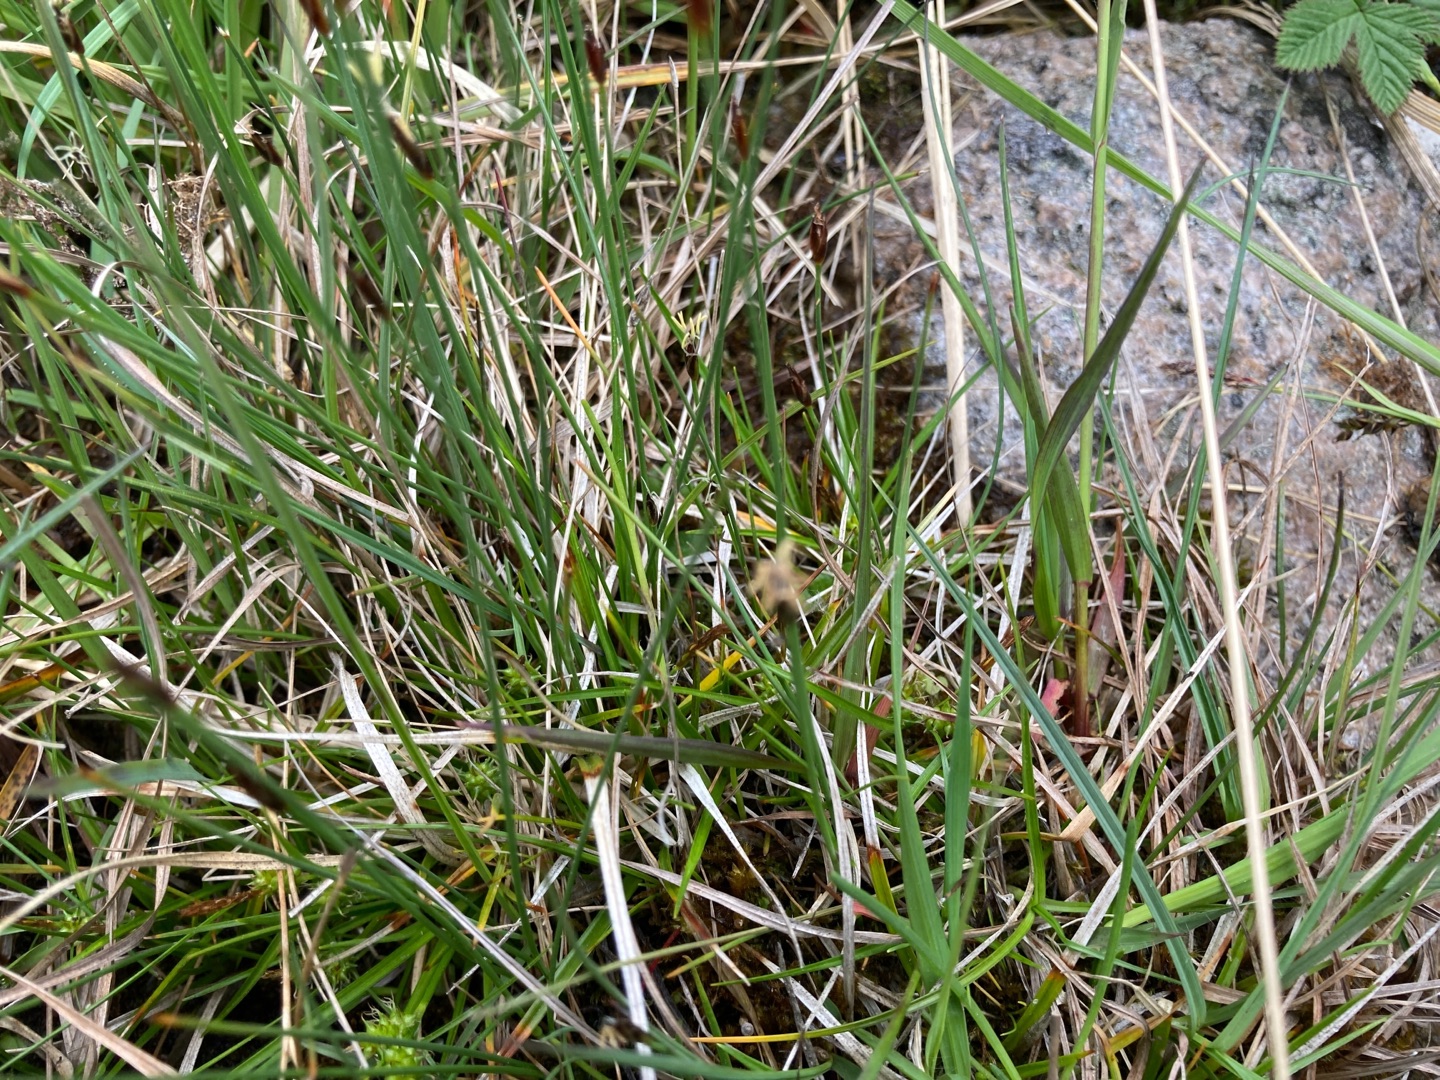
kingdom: Plantae
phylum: Tracheophyta
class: Liliopsida
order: Poales
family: Cyperaceae
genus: Eleocharis
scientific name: Eleocharis quinqueflora
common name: Fåblomstret kogleaks
